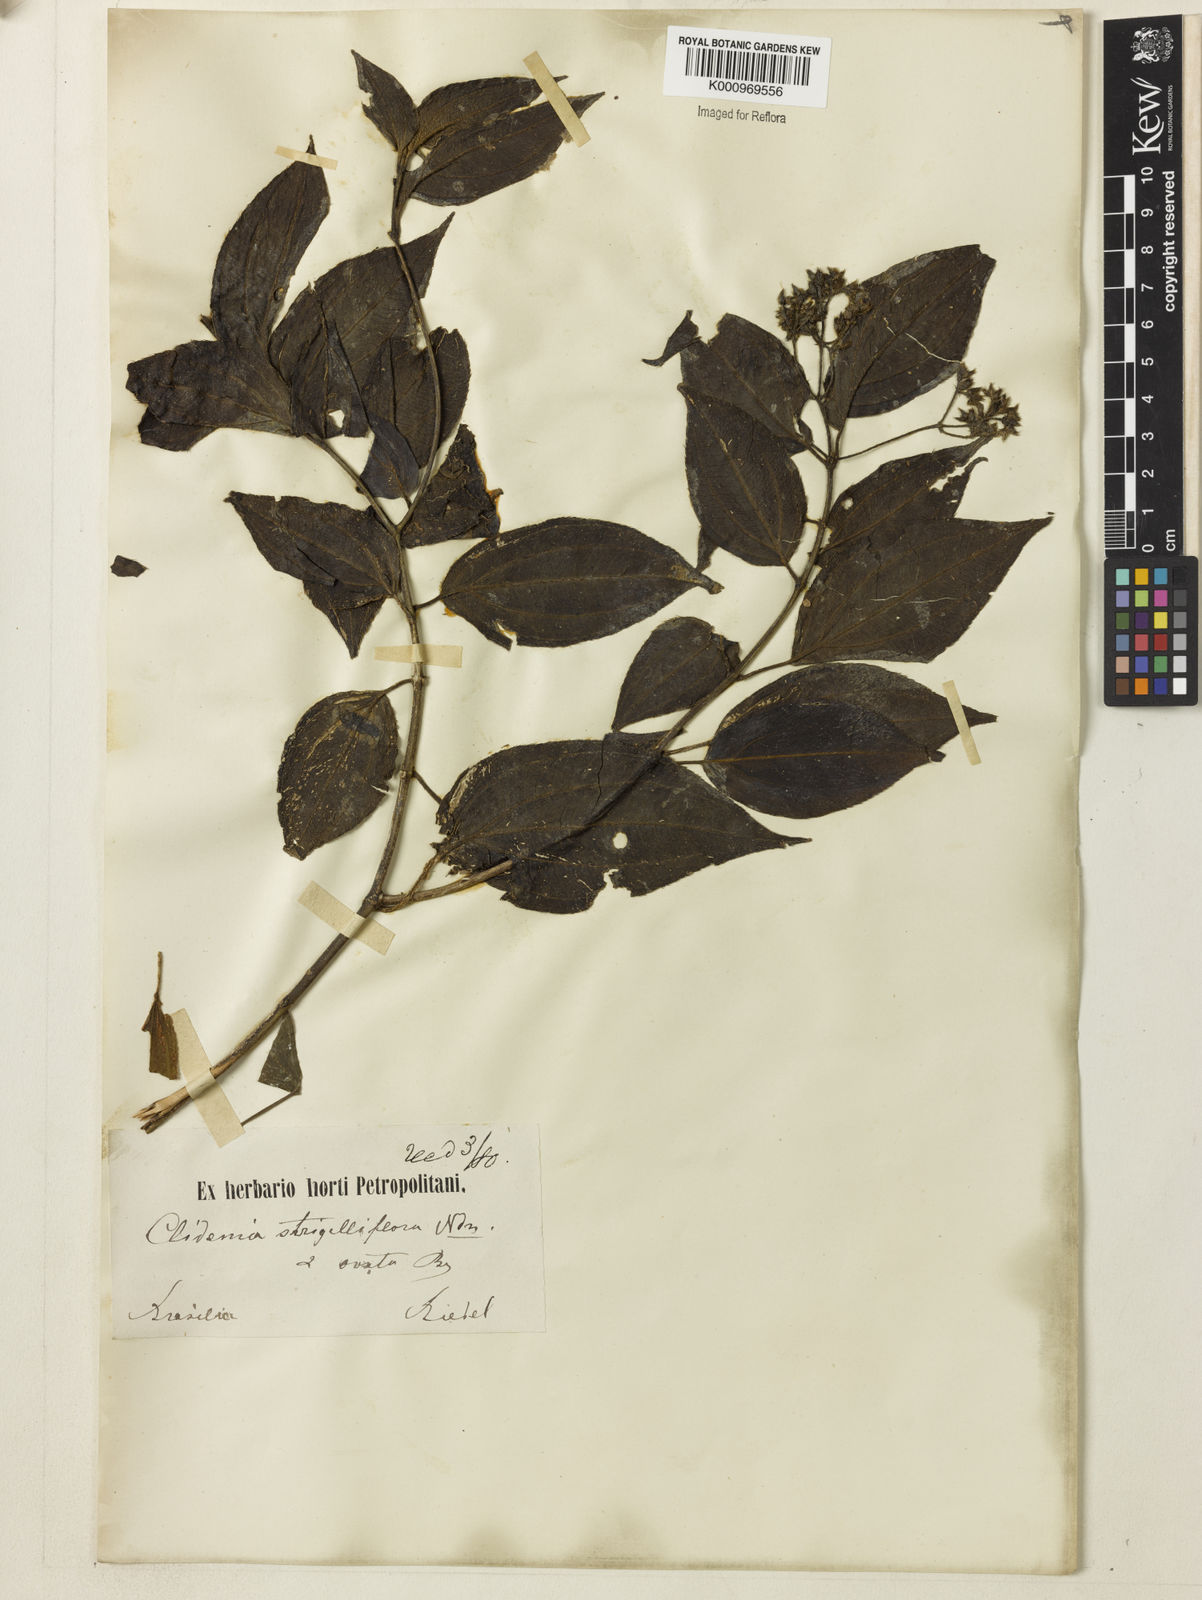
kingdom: Plantae
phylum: Tracheophyta
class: Magnoliopsida
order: Myrtales
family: Melastomataceae
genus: Miconia
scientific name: Miconia strigilliflora
